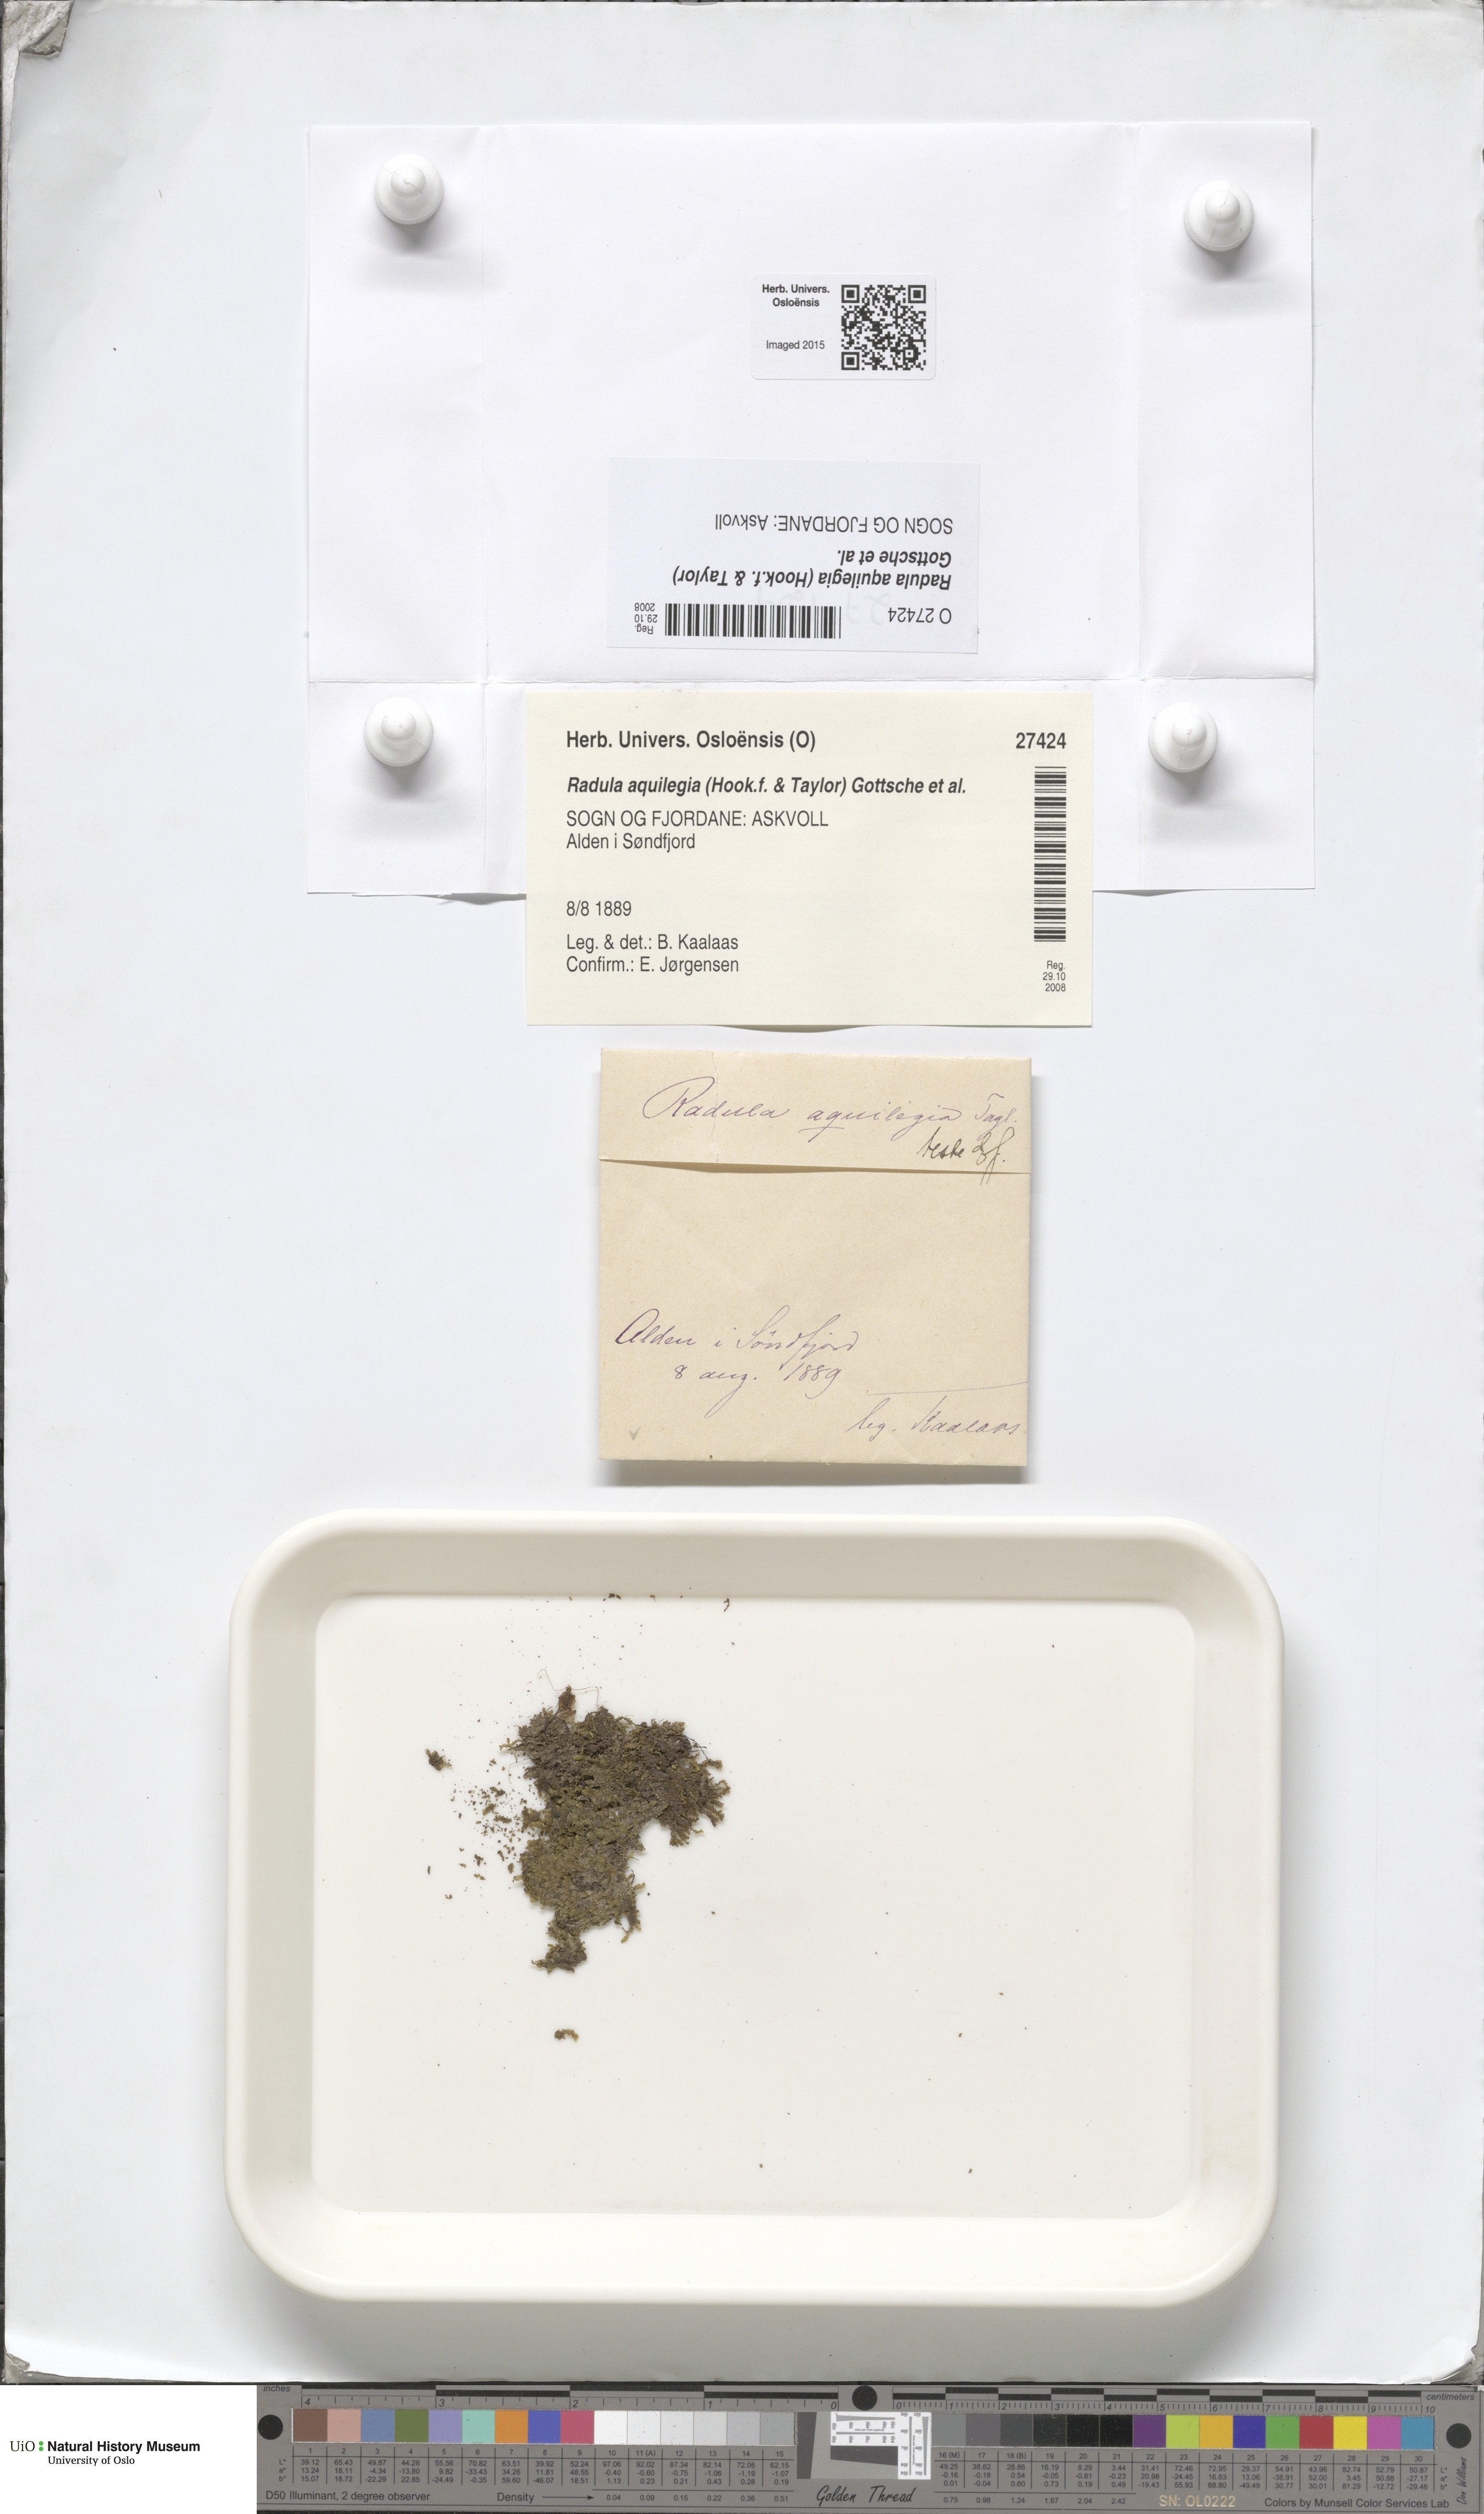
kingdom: Plantae
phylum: Marchantiophyta
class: Jungermanniopsida
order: Porellales
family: Radulaceae
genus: Radula
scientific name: Radula aquilegia
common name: Brown scalewort
